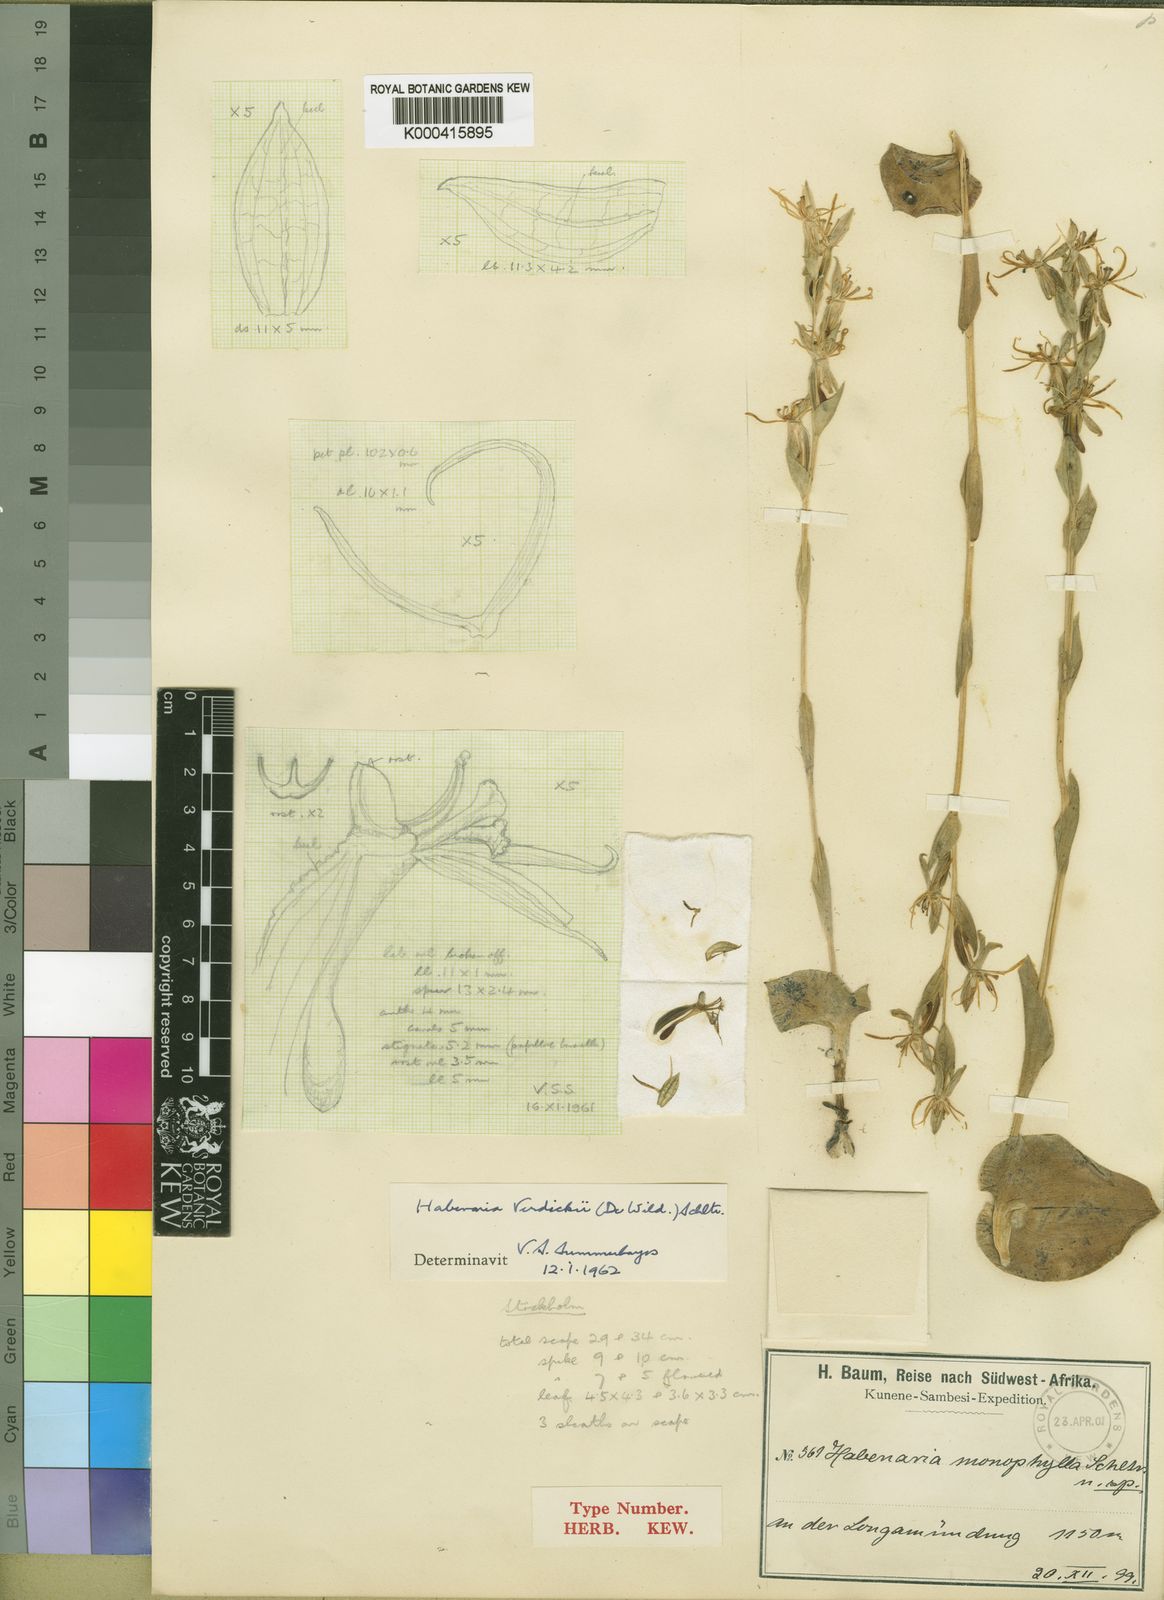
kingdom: Plantae
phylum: Tracheophyta
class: Liliopsida
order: Asparagales
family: Orchidaceae
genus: Habenaria
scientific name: Habenaria verdickii
